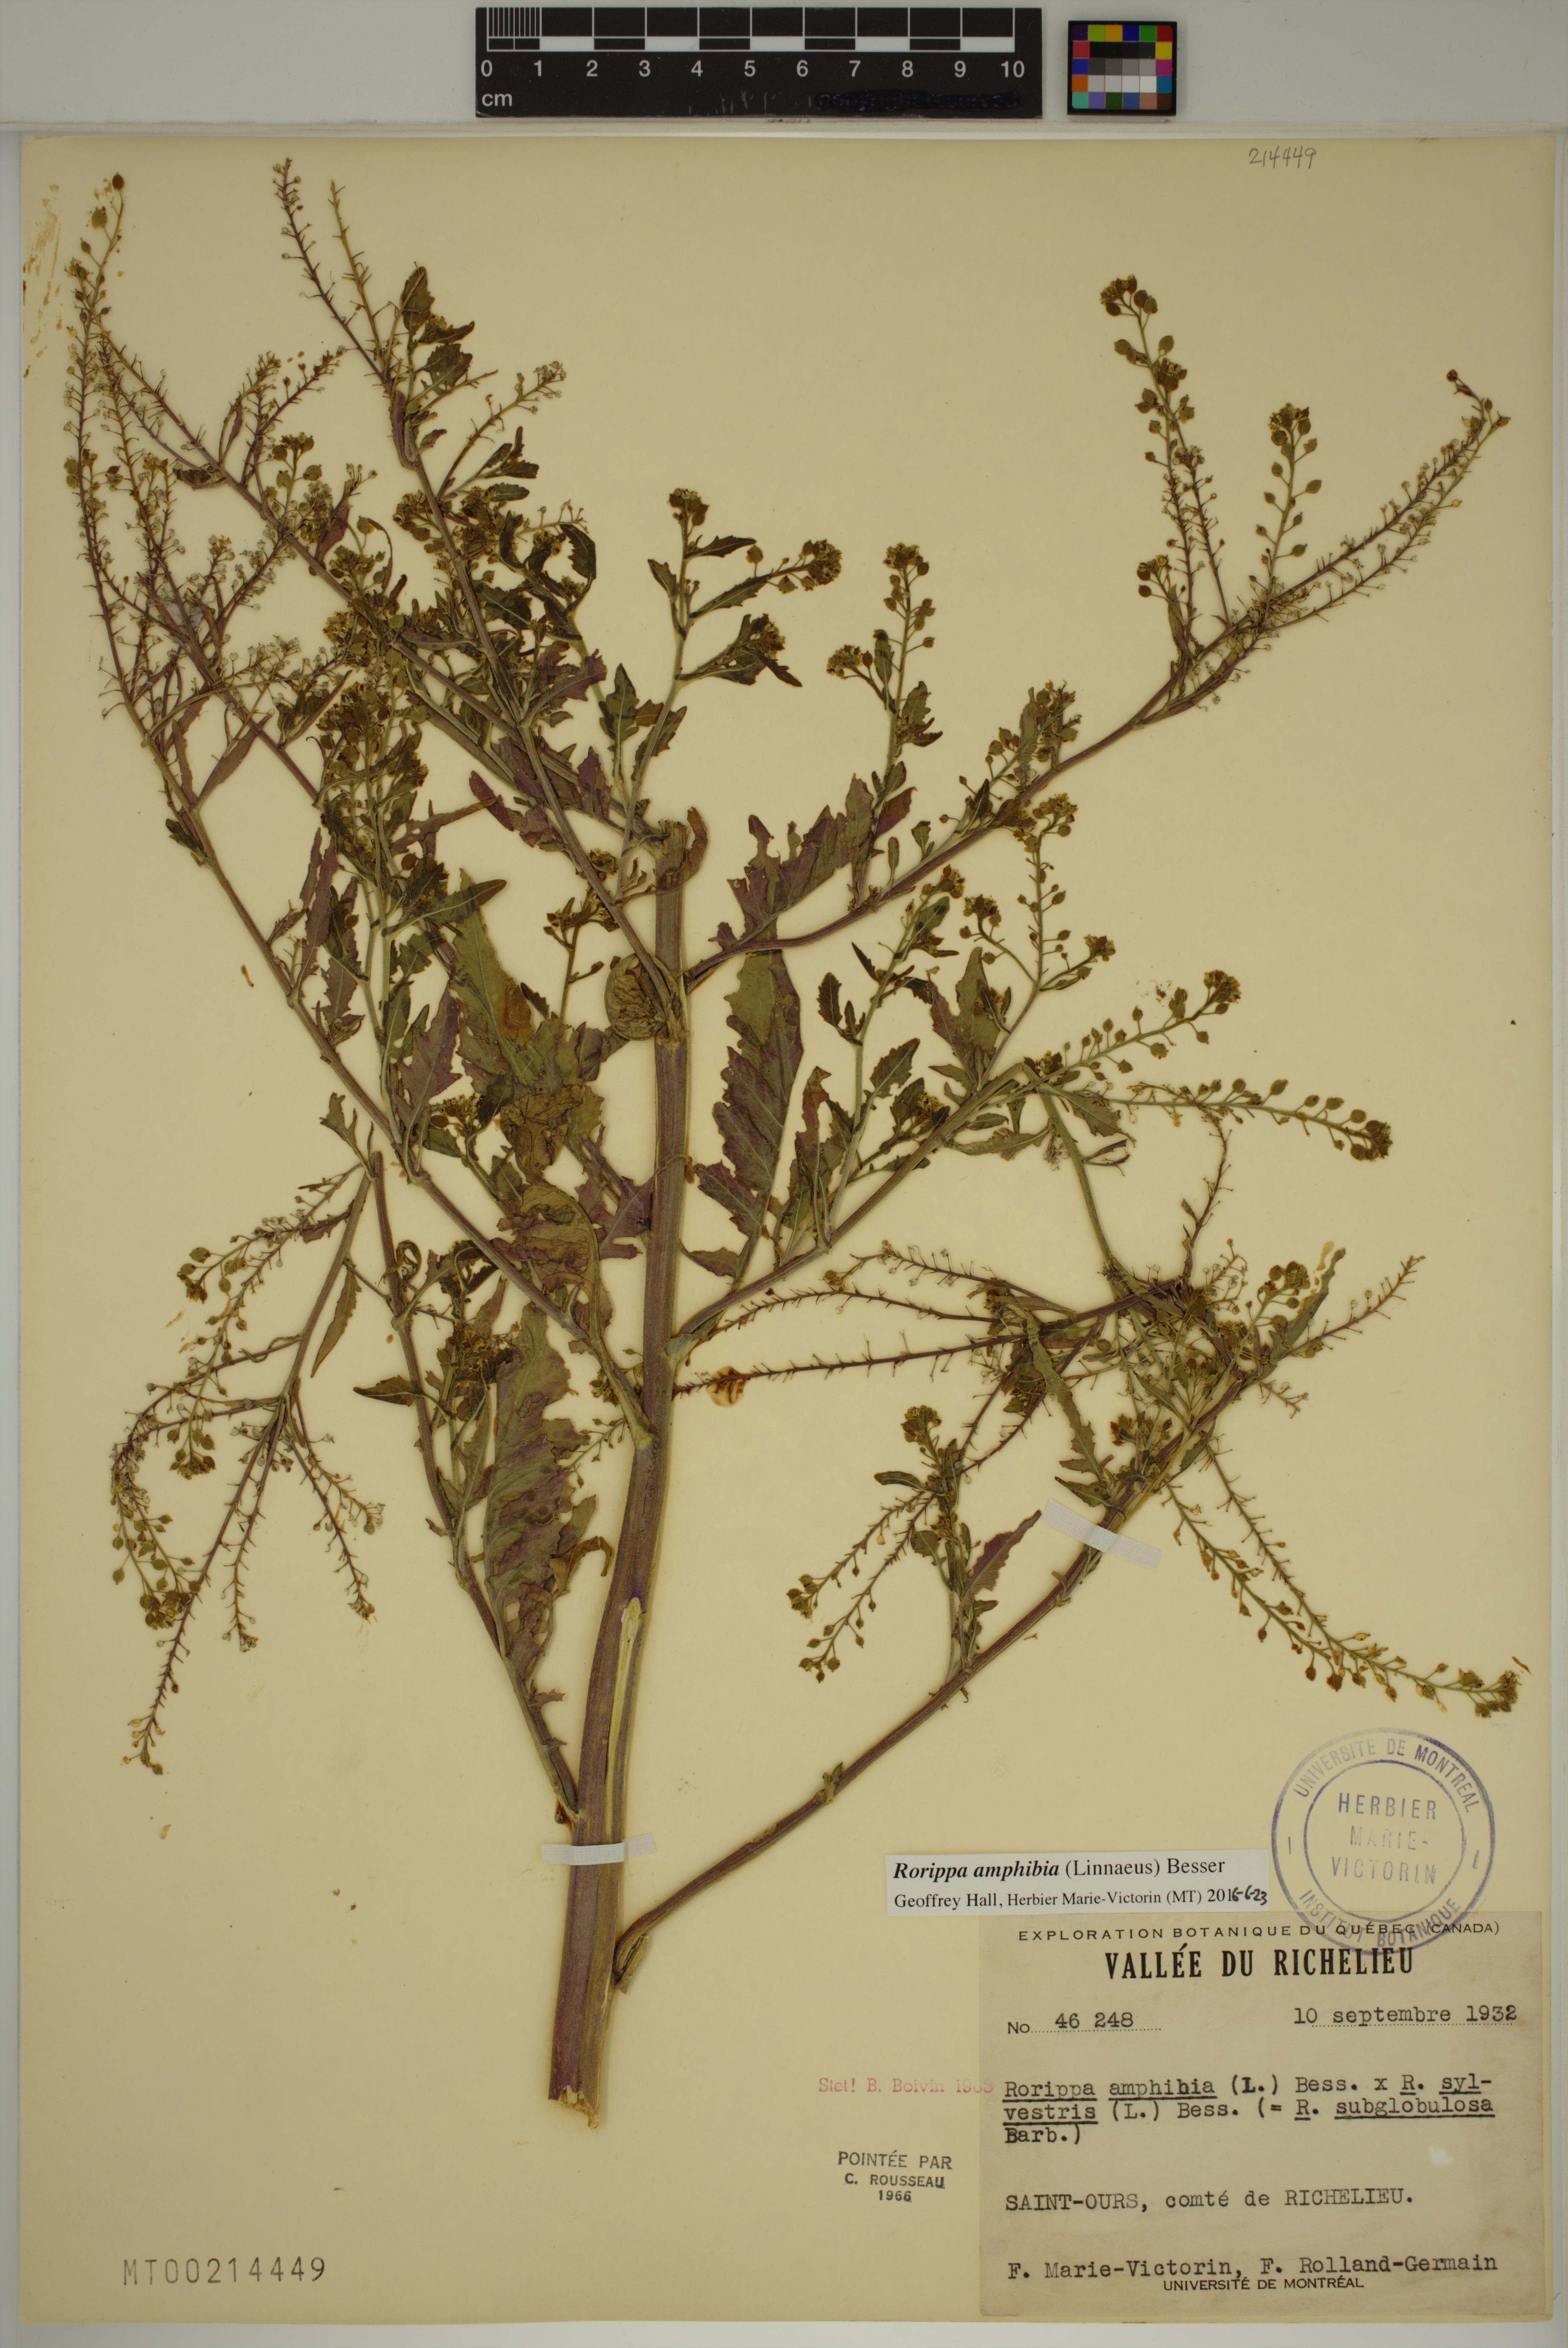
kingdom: Plantae
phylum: Tracheophyta
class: Magnoliopsida
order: Brassicales
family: Brassicaceae
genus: Rorippa
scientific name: Rorippa amphibia
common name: Great yellow-cress
